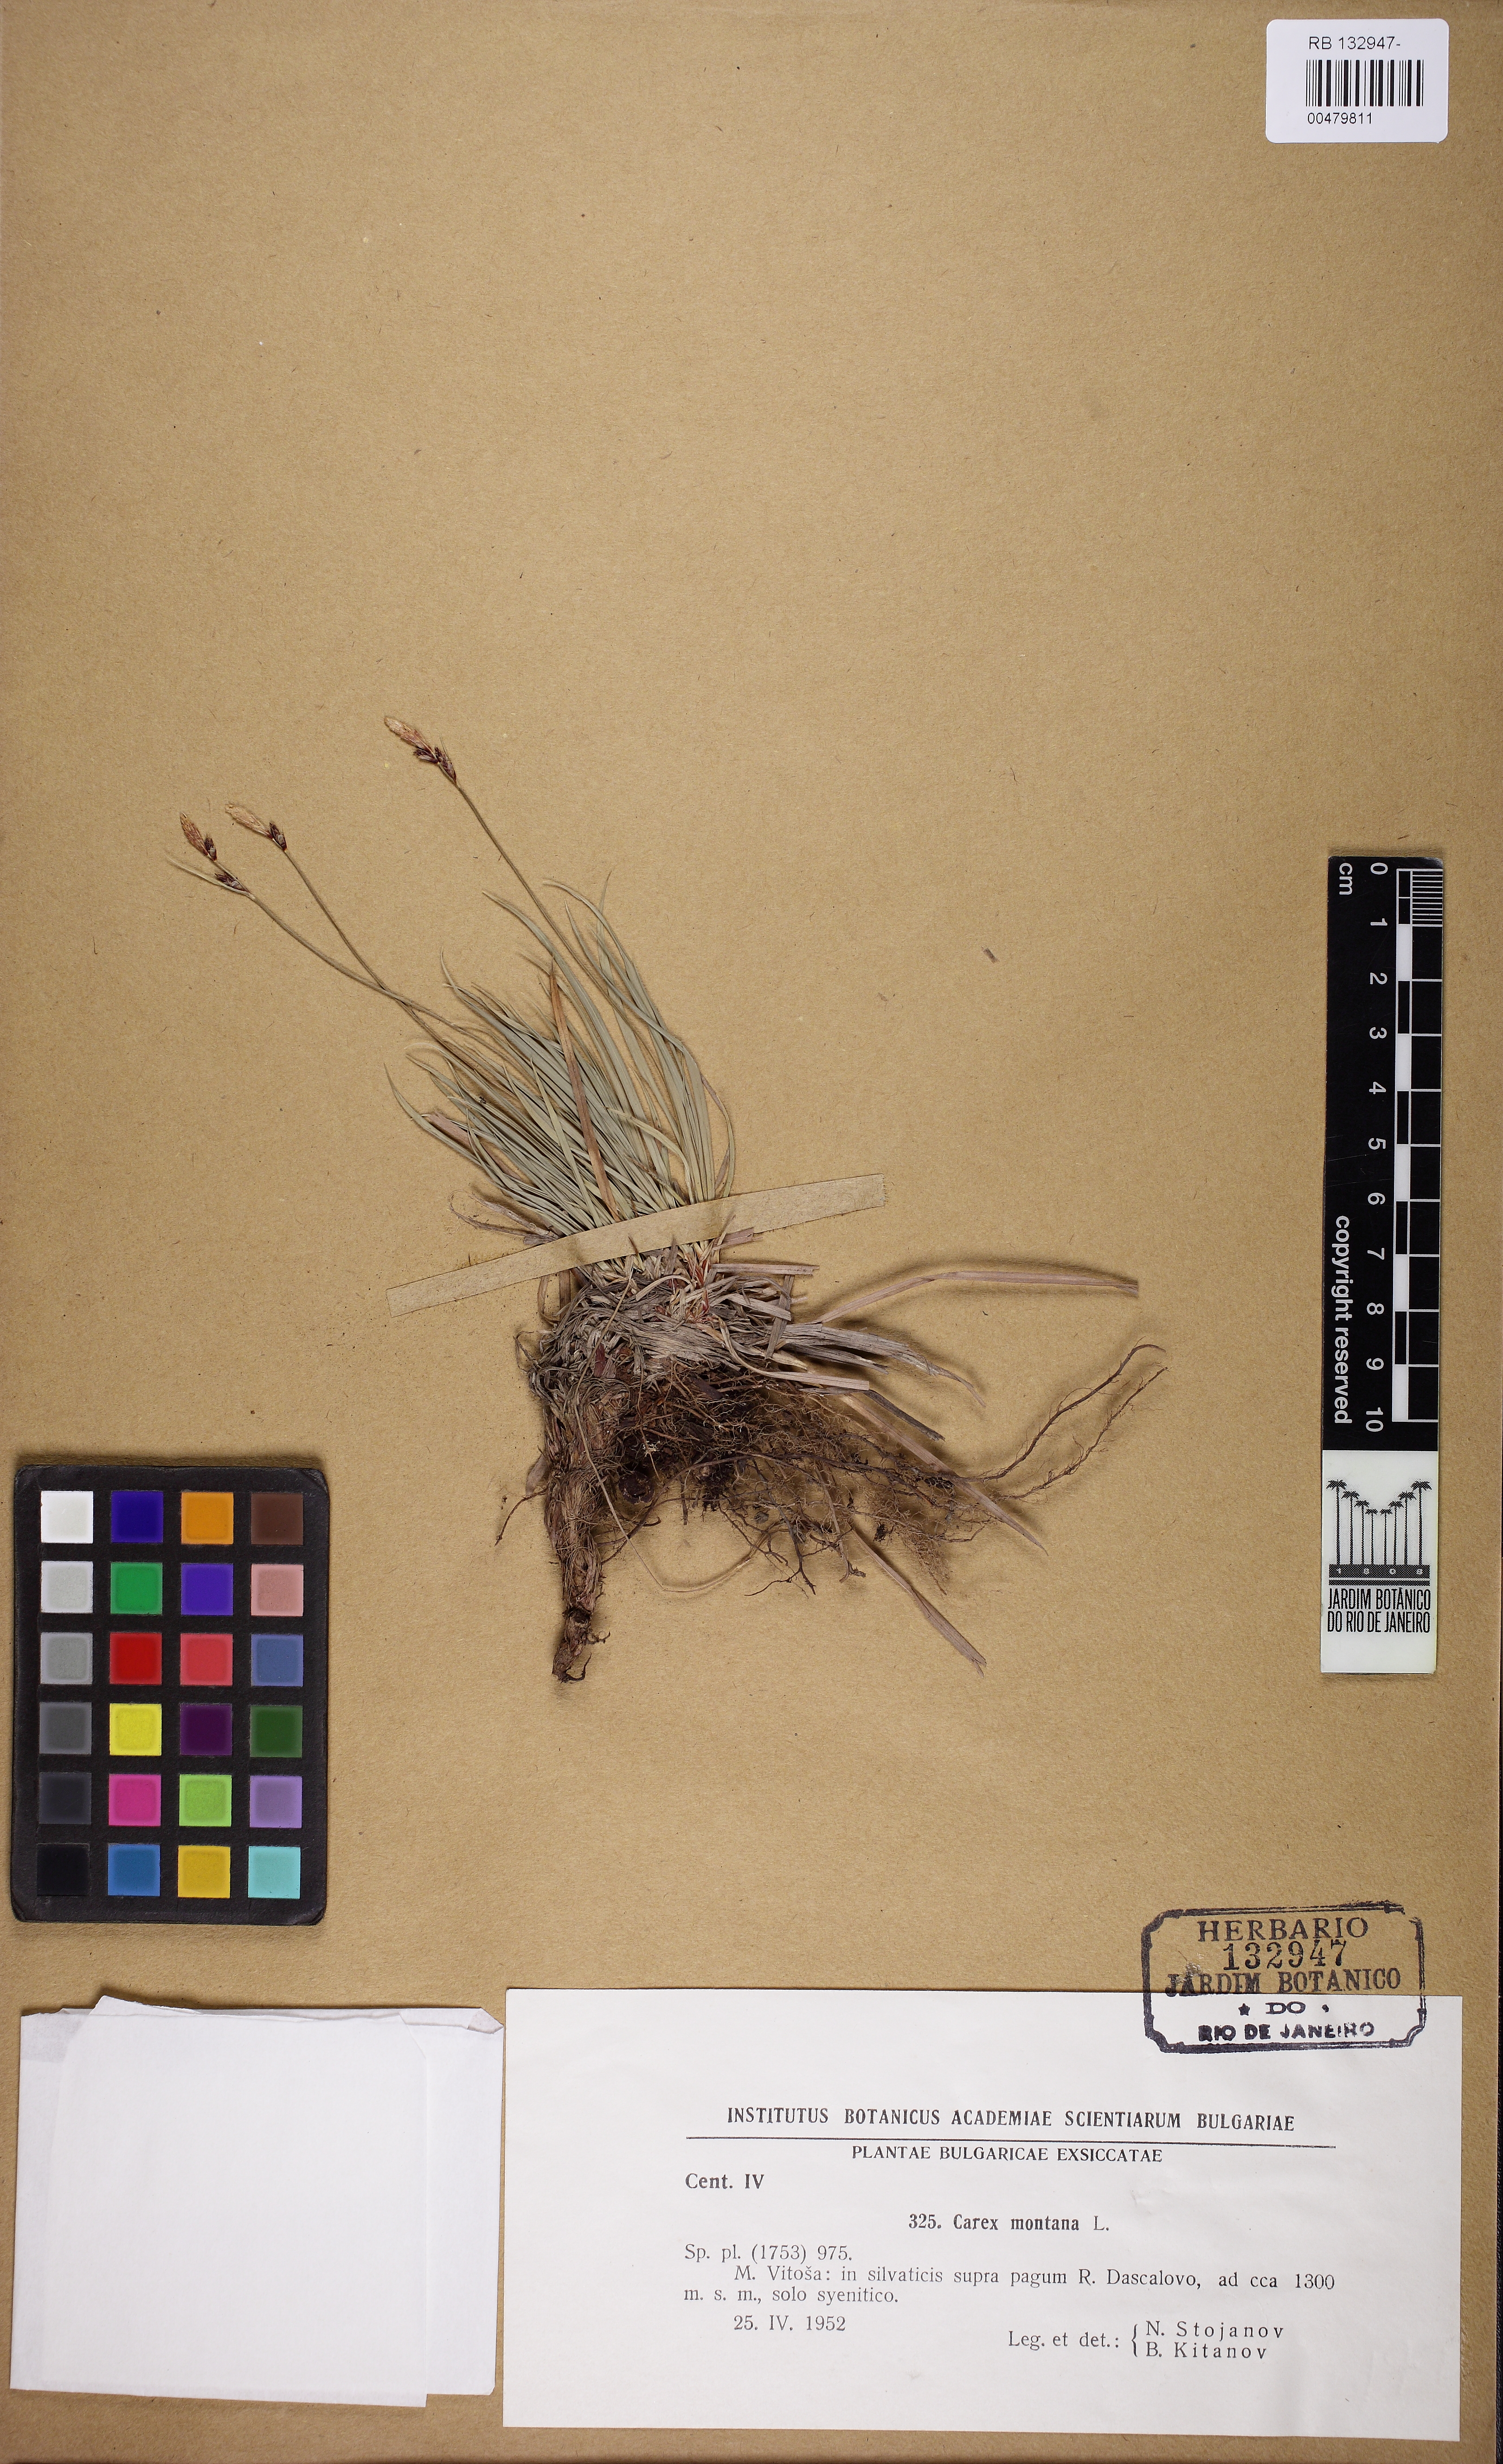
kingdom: Plantae
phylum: Tracheophyta
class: Liliopsida
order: Poales
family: Cyperaceae
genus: Carex
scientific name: Carex montana
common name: Soft-leaved sedge
